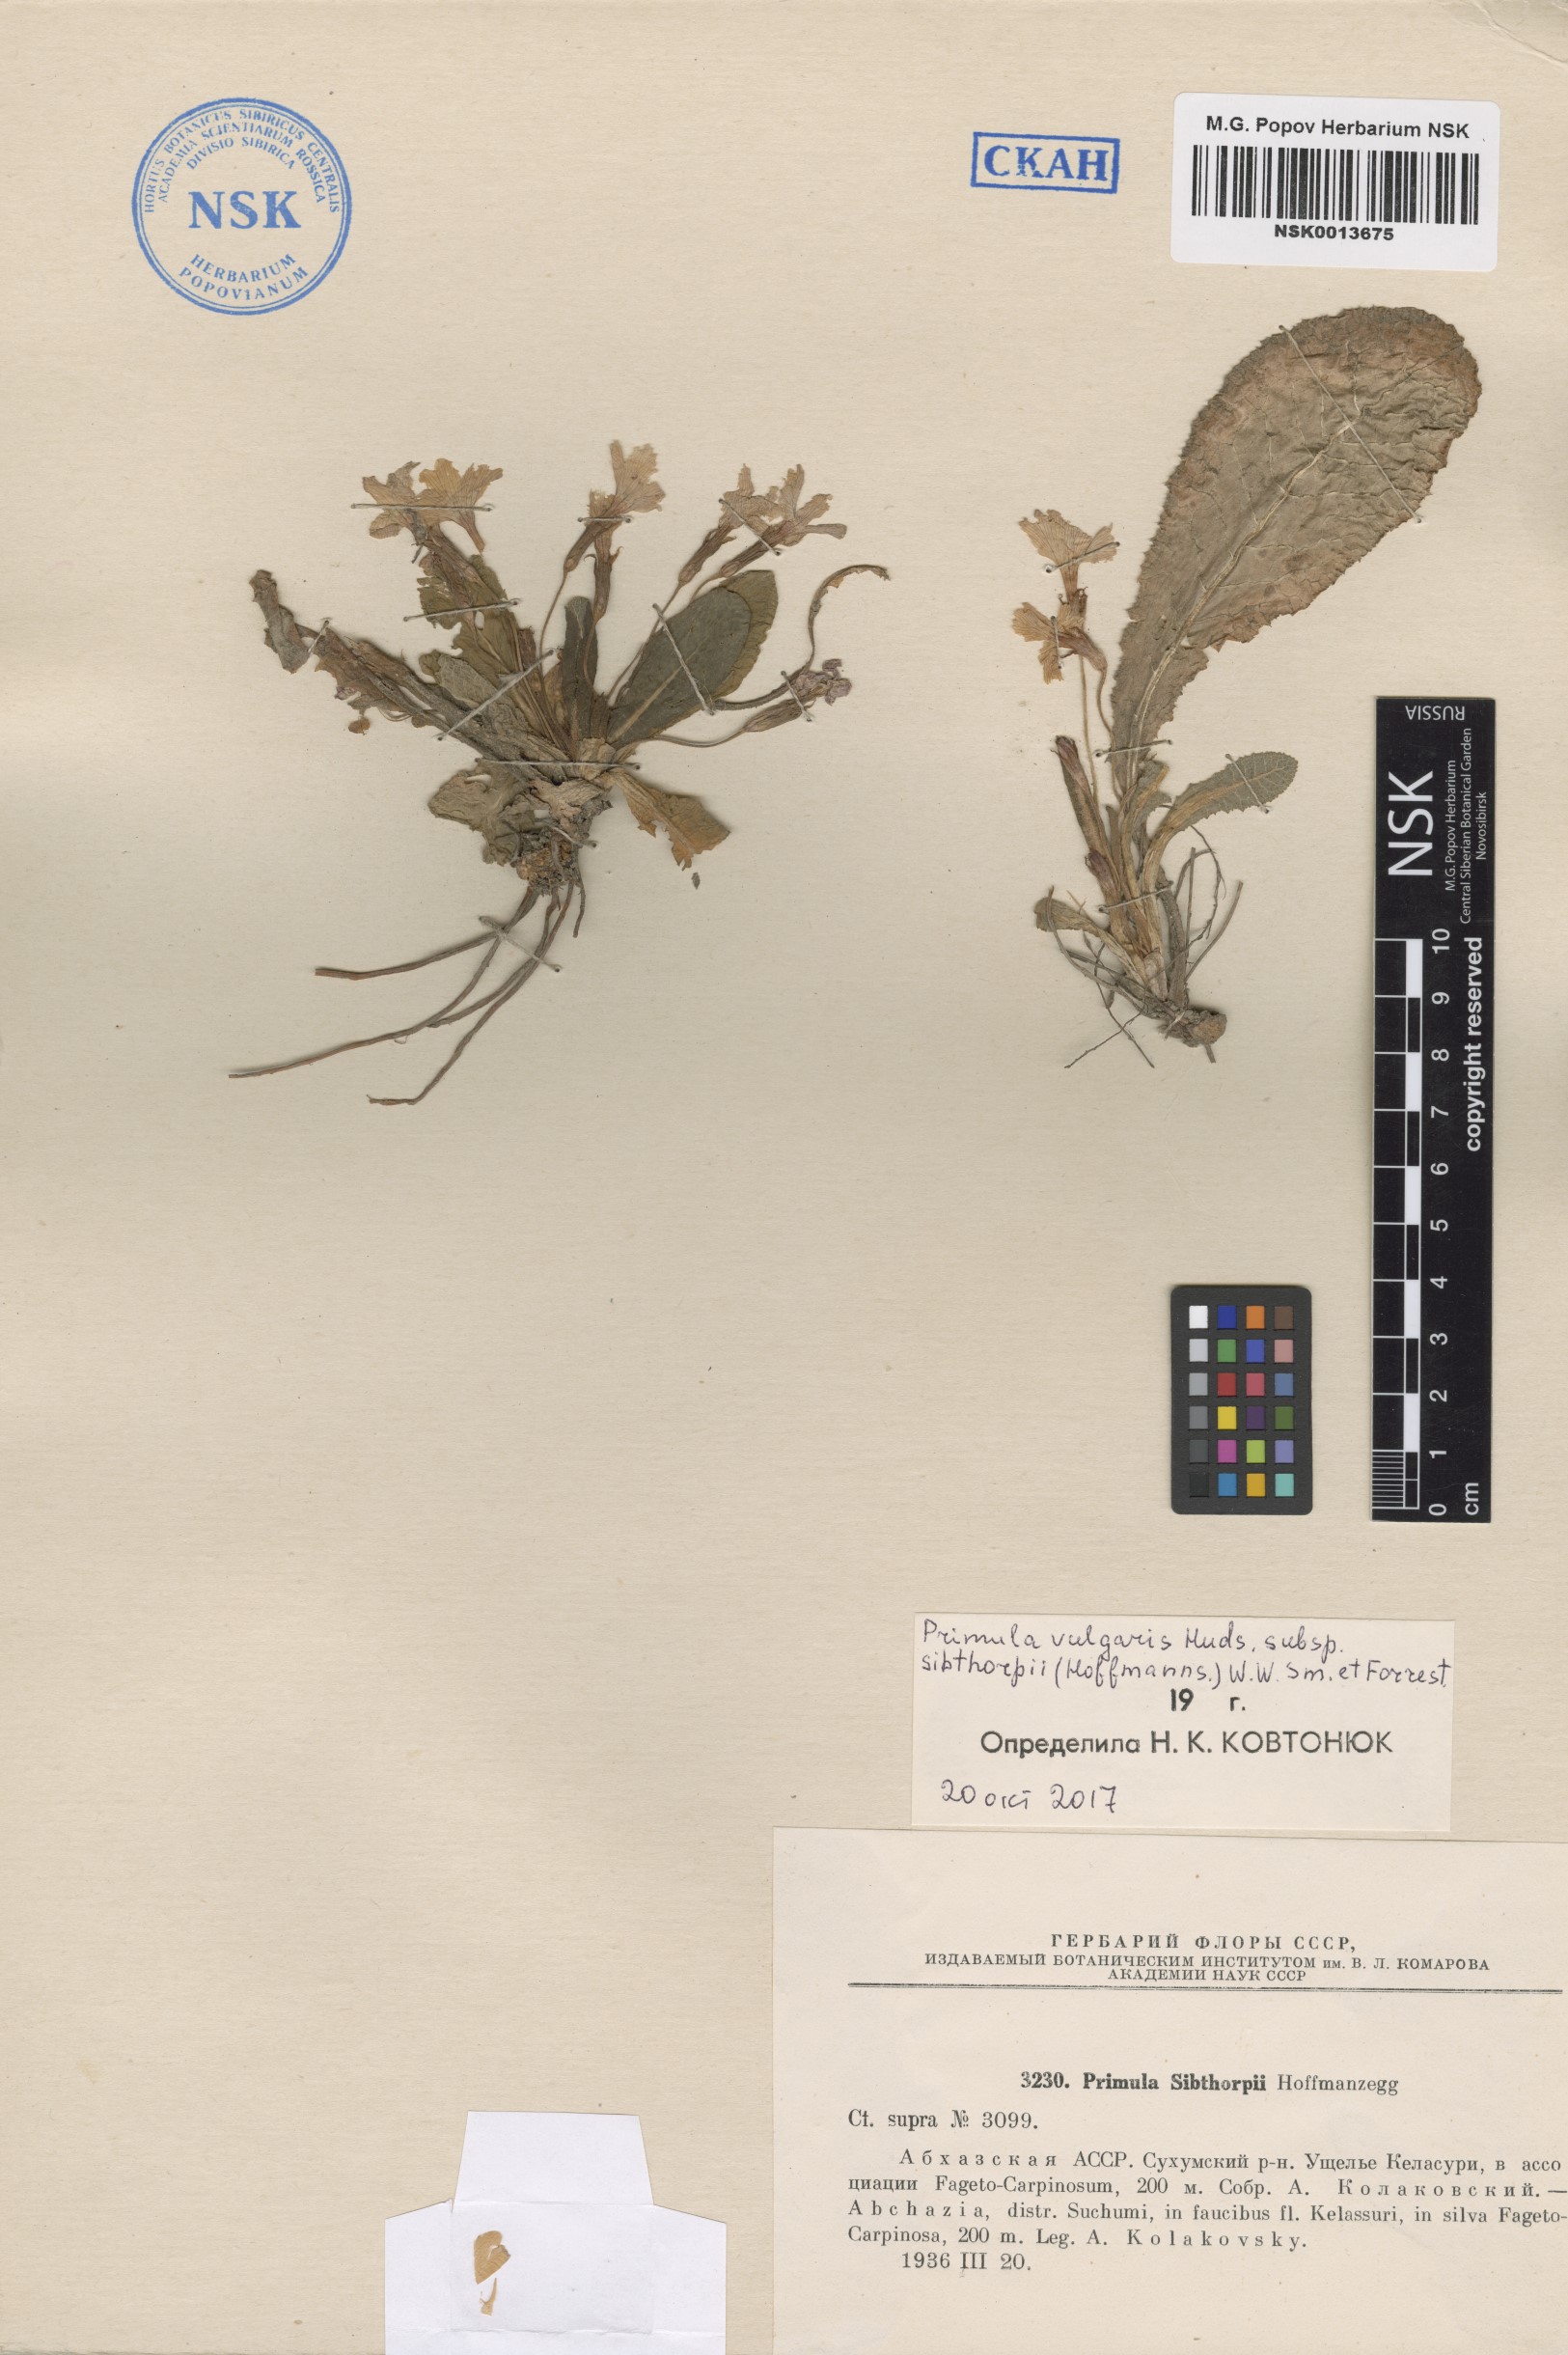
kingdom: Plantae
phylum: Tracheophyta
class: Magnoliopsida
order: Ericales
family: Primulaceae
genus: Primula
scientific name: Primula vulgaris
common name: Primrose
